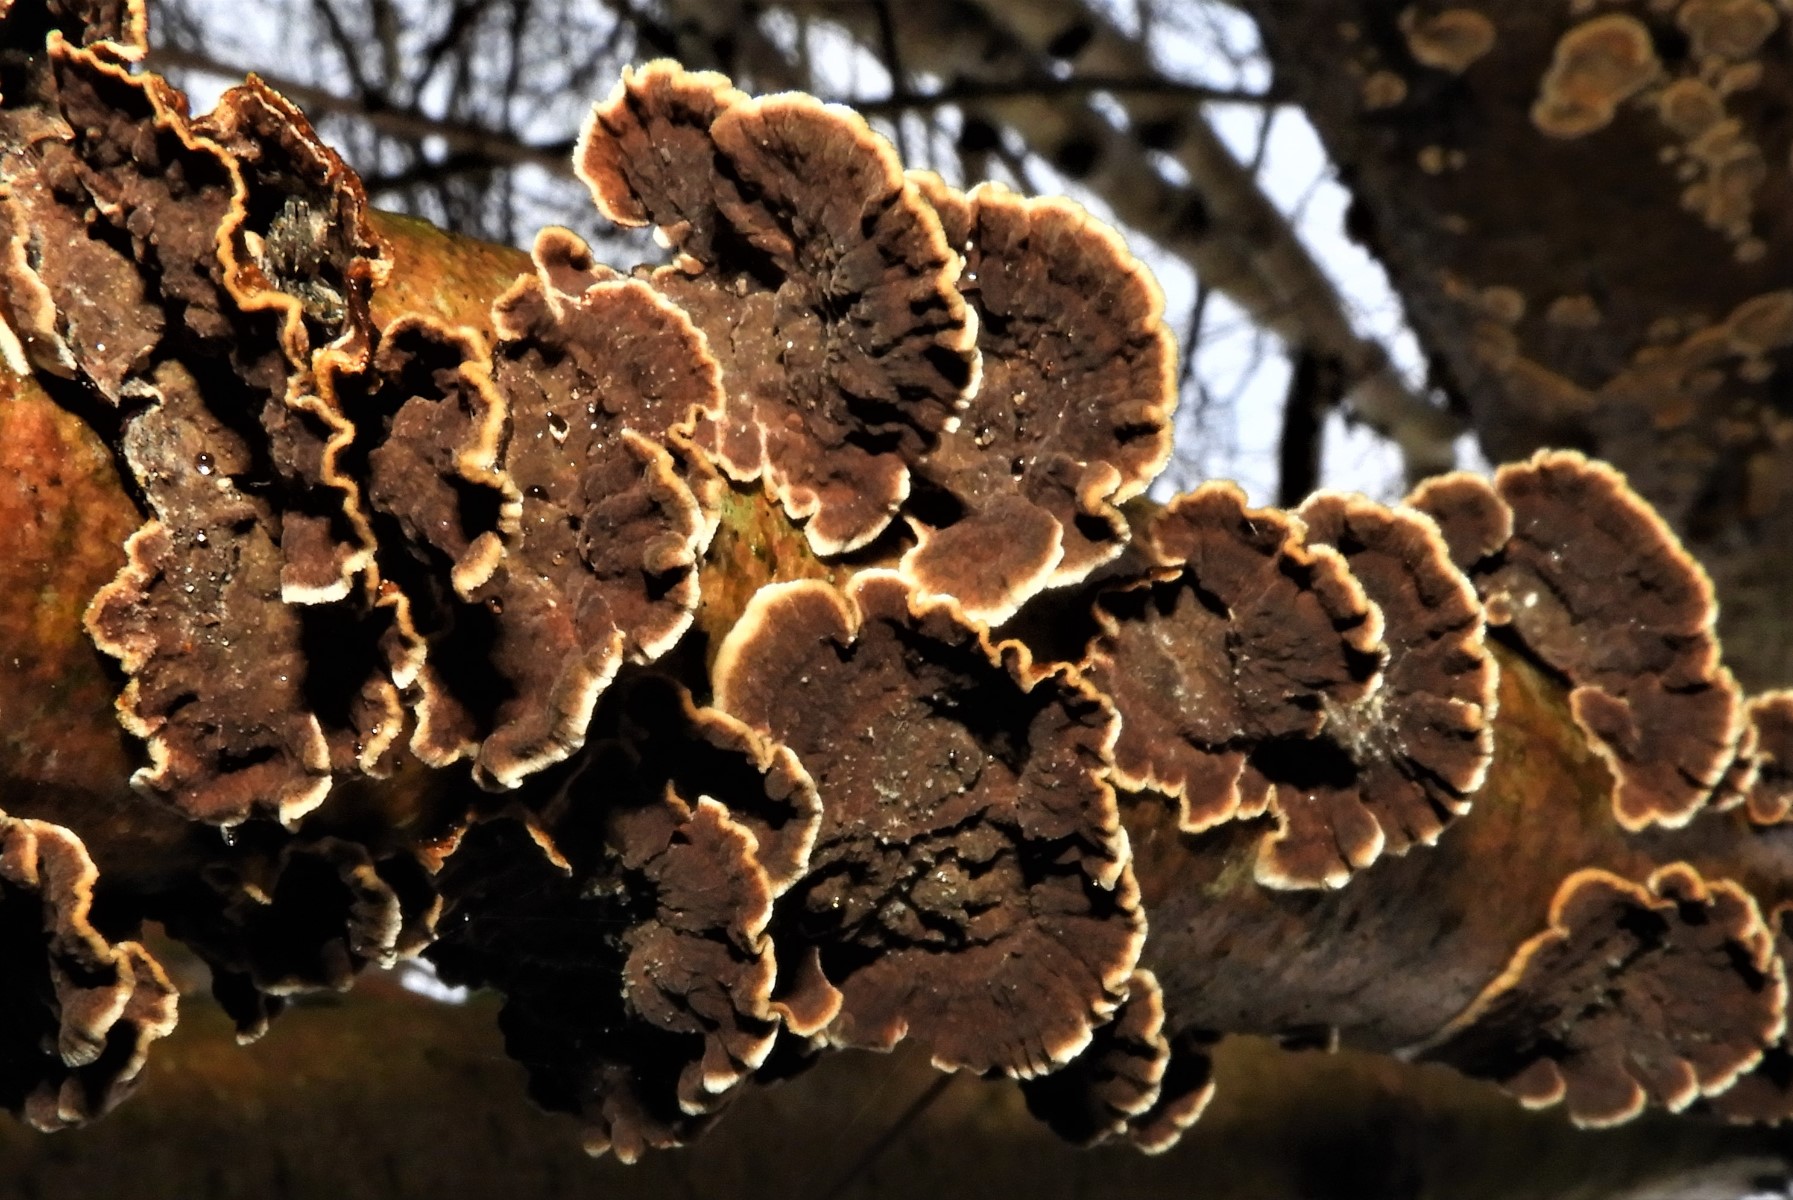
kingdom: Fungi
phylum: Basidiomycota
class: Agaricomycetes
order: Hymenochaetales
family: Hymenochaetaceae
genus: Hydnoporia
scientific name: Hydnoporia tabacina
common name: tobaksbrun ruslædersvamp
